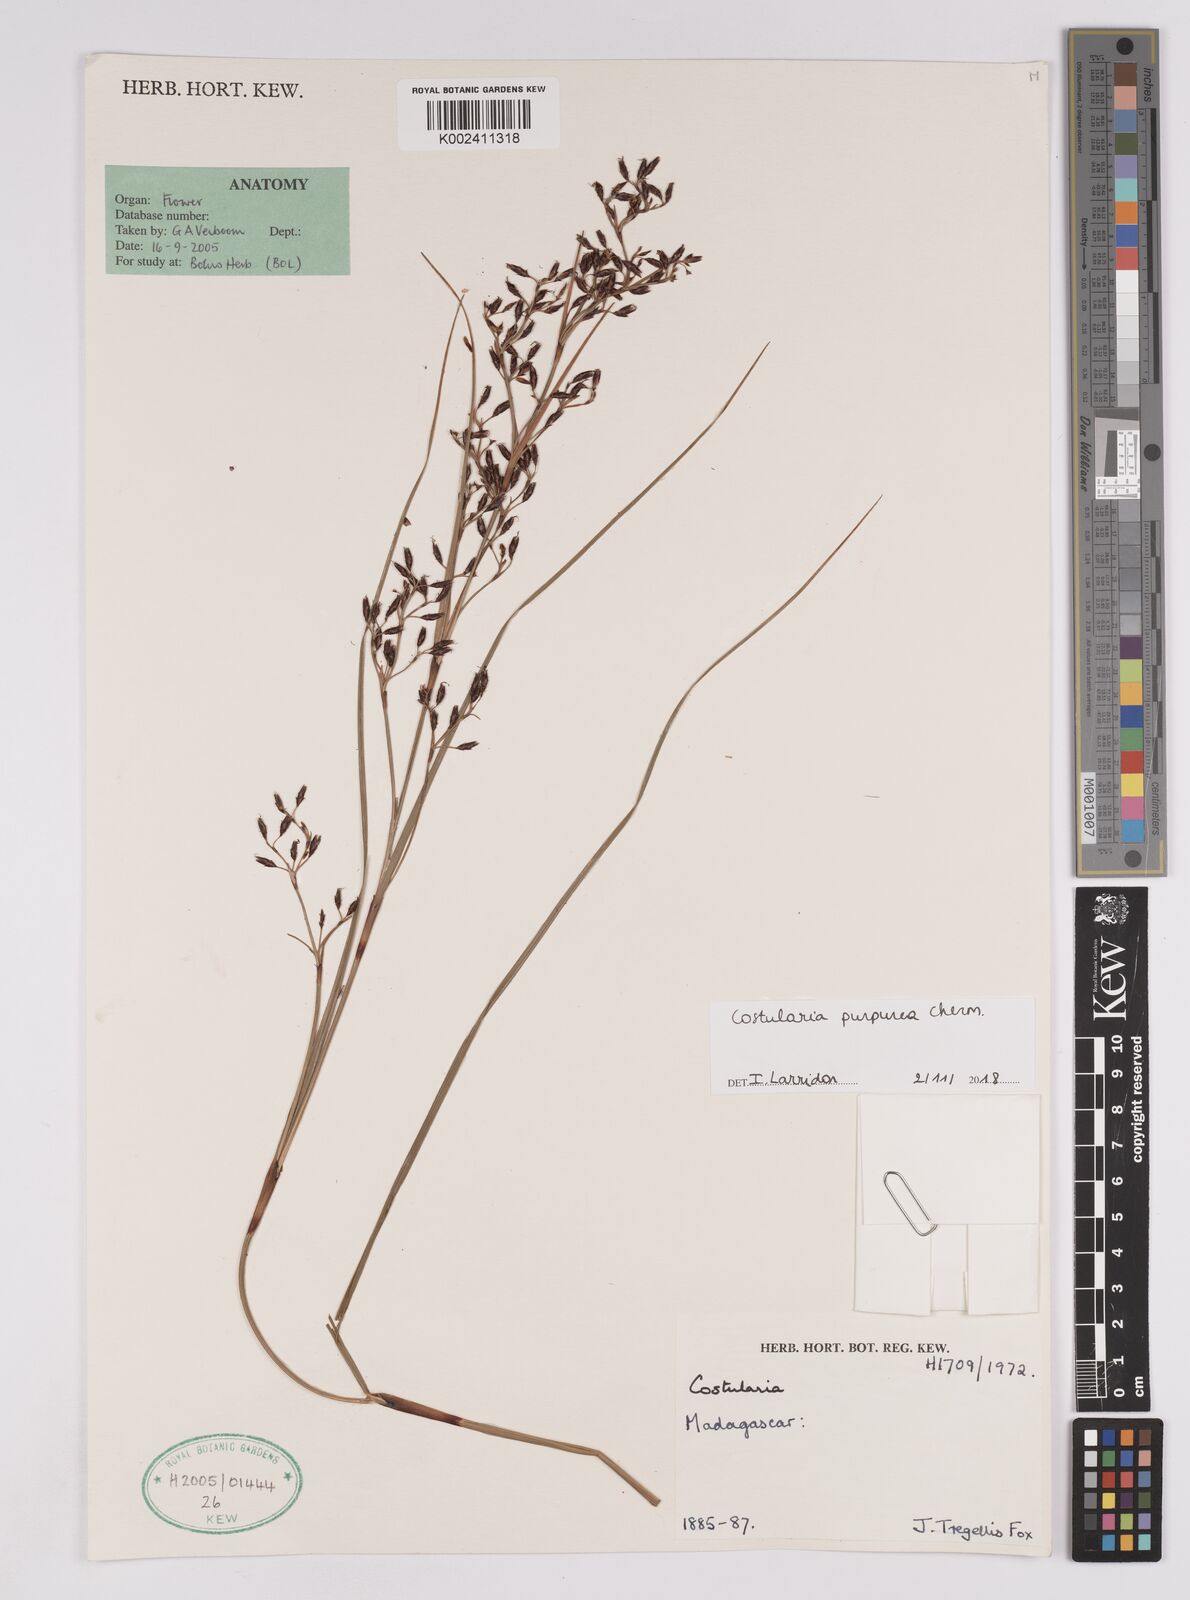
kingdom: Plantae
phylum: Tracheophyta
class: Liliopsida
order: Poales
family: Cyperaceae
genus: Costularia
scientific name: Costularia purpurea
